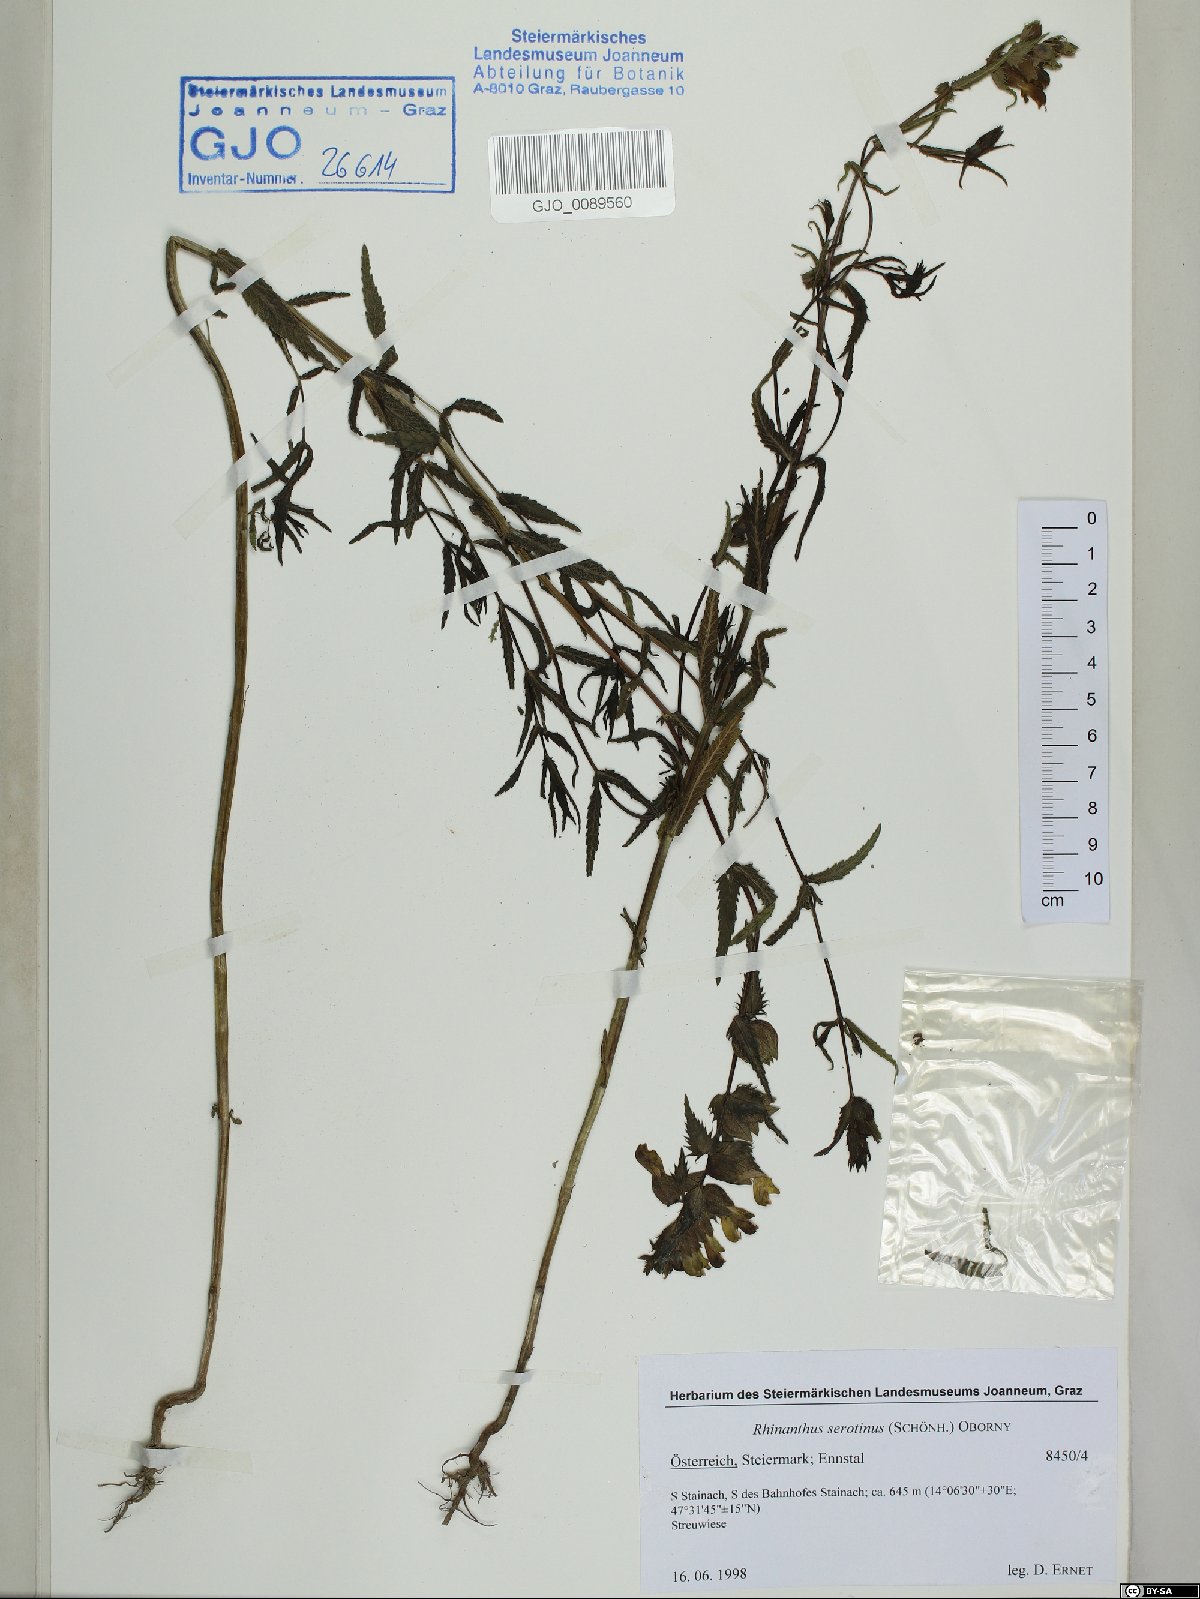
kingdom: Plantae
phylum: Tracheophyta
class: Magnoliopsida
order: Lamiales
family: Orobanchaceae
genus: Rhinanthus
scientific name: Rhinanthus serotinus
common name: Late-flowering yellow rattle
